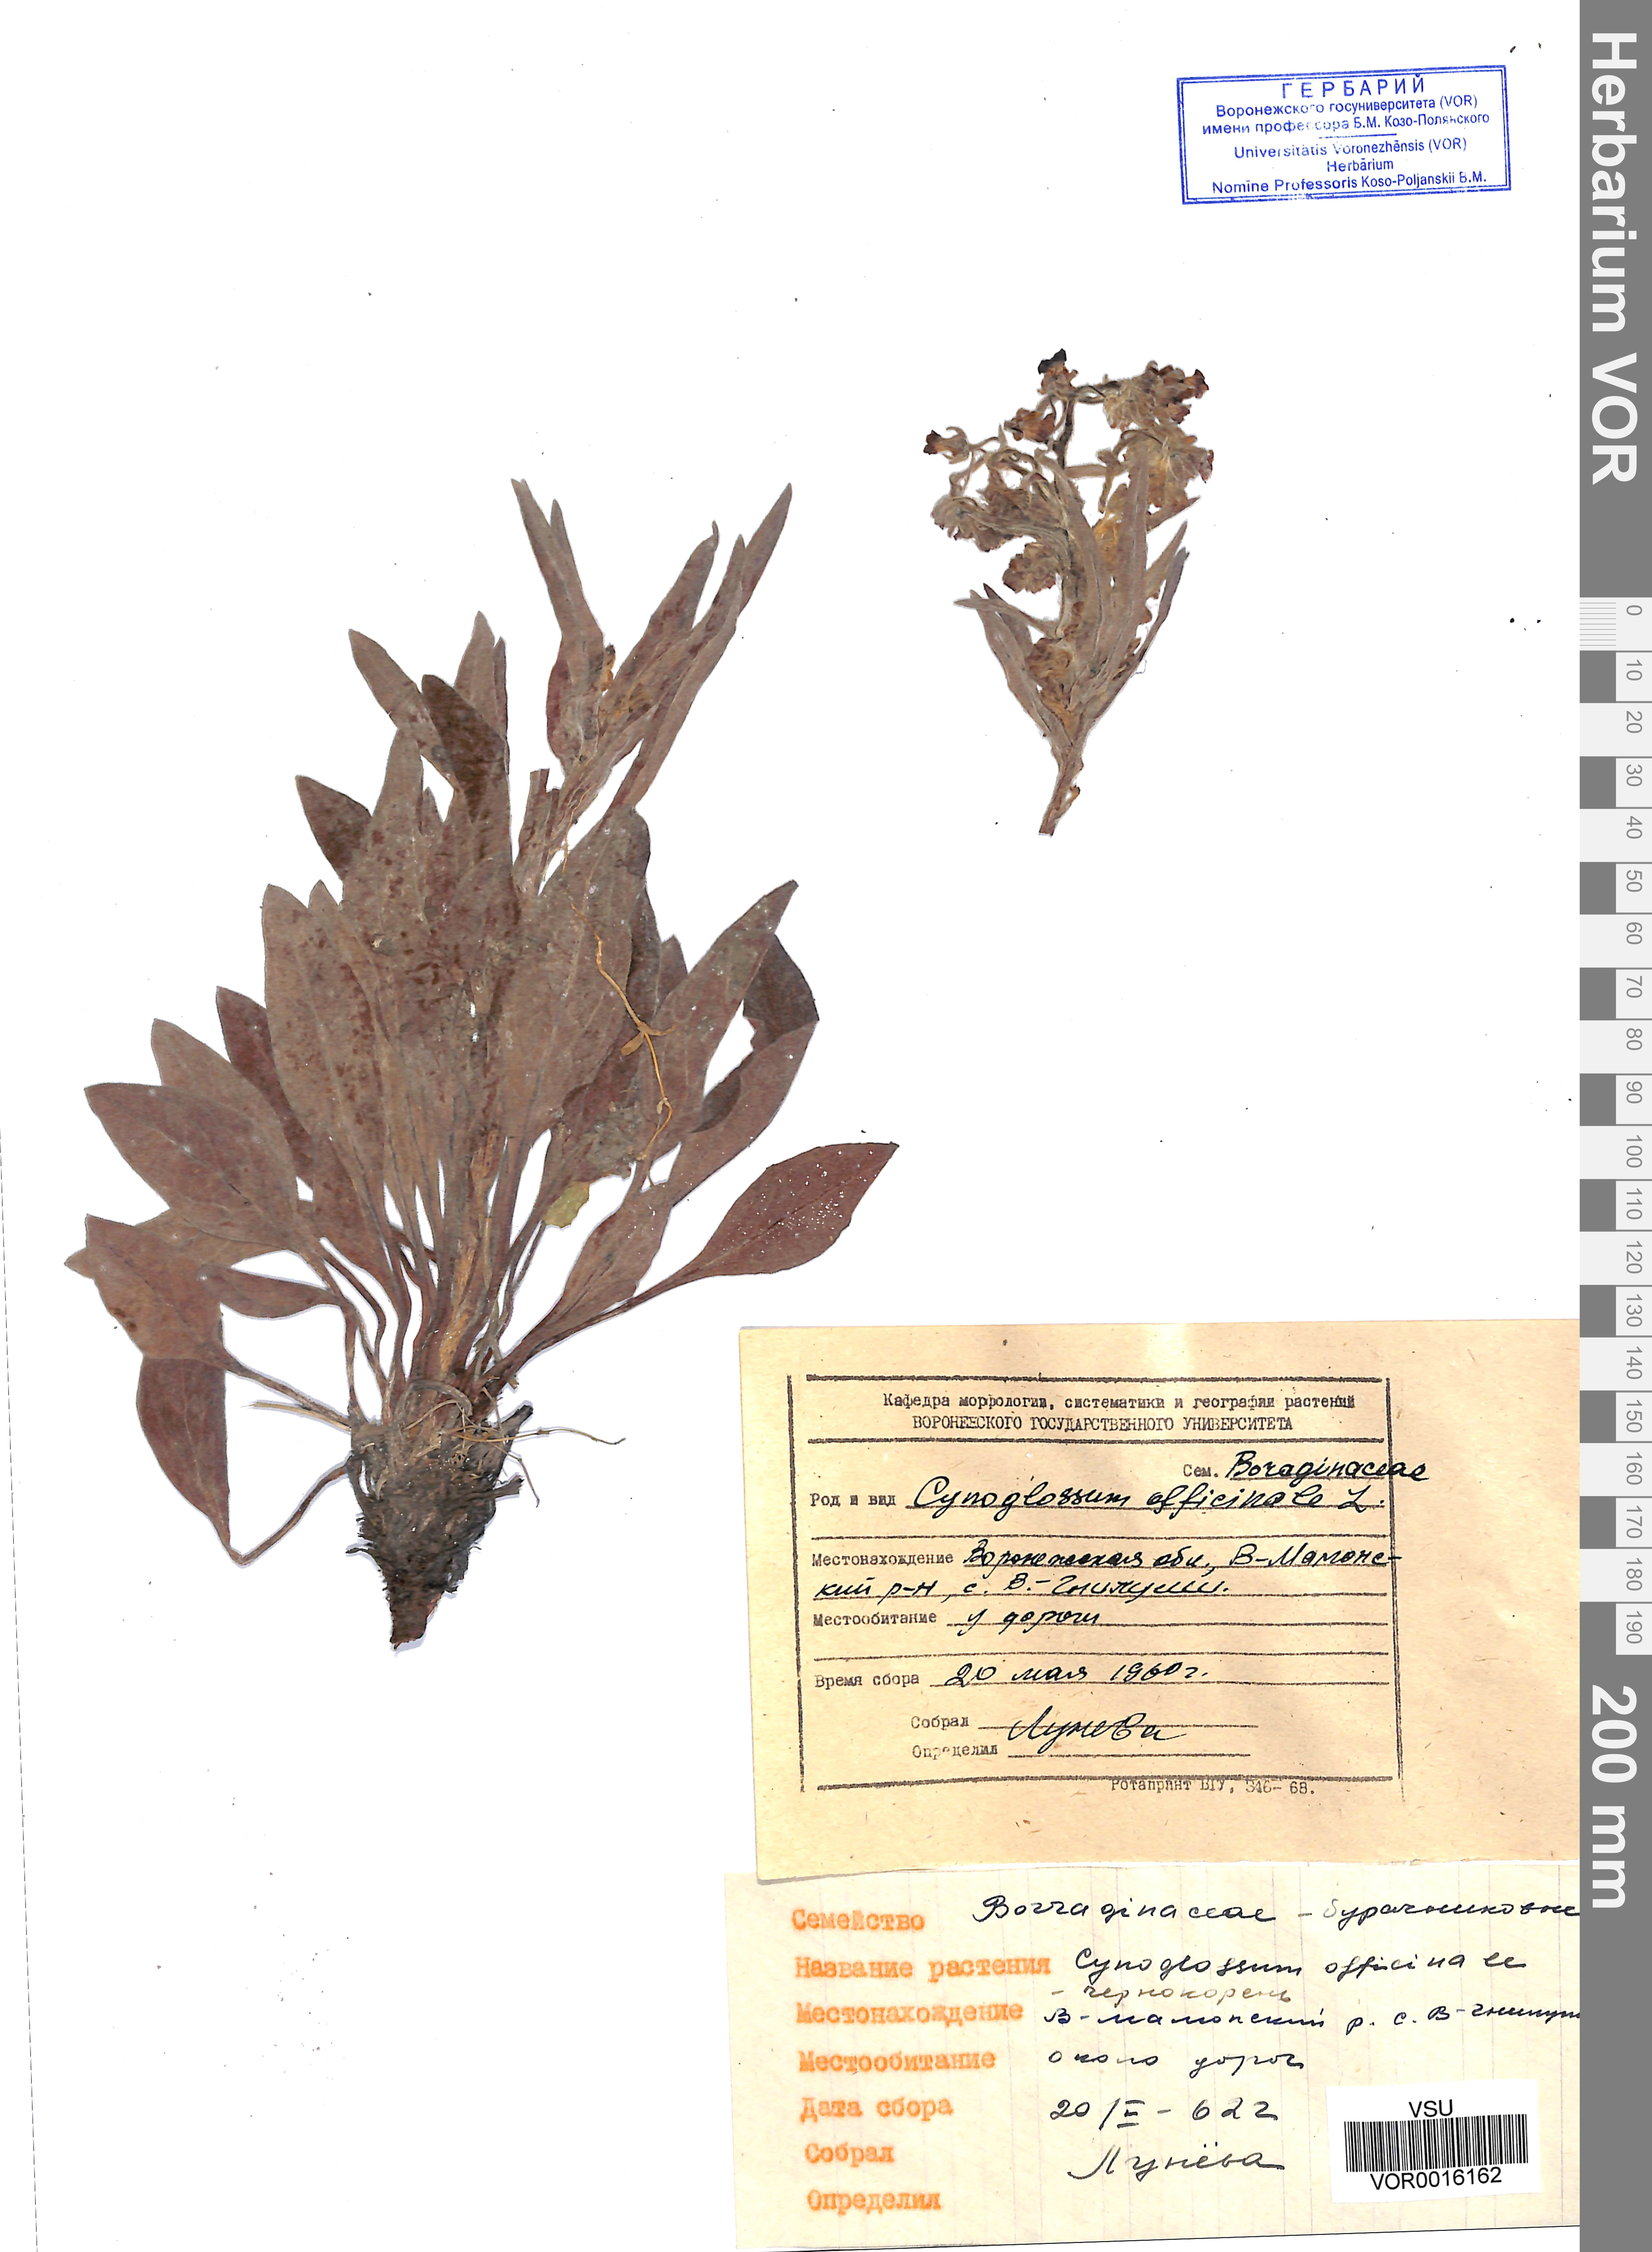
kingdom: Plantae
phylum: Tracheophyta
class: Magnoliopsida
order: Boraginales
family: Boraginaceae
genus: Cynoglossum
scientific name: Cynoglossum officinale
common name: Hound's-tongue
